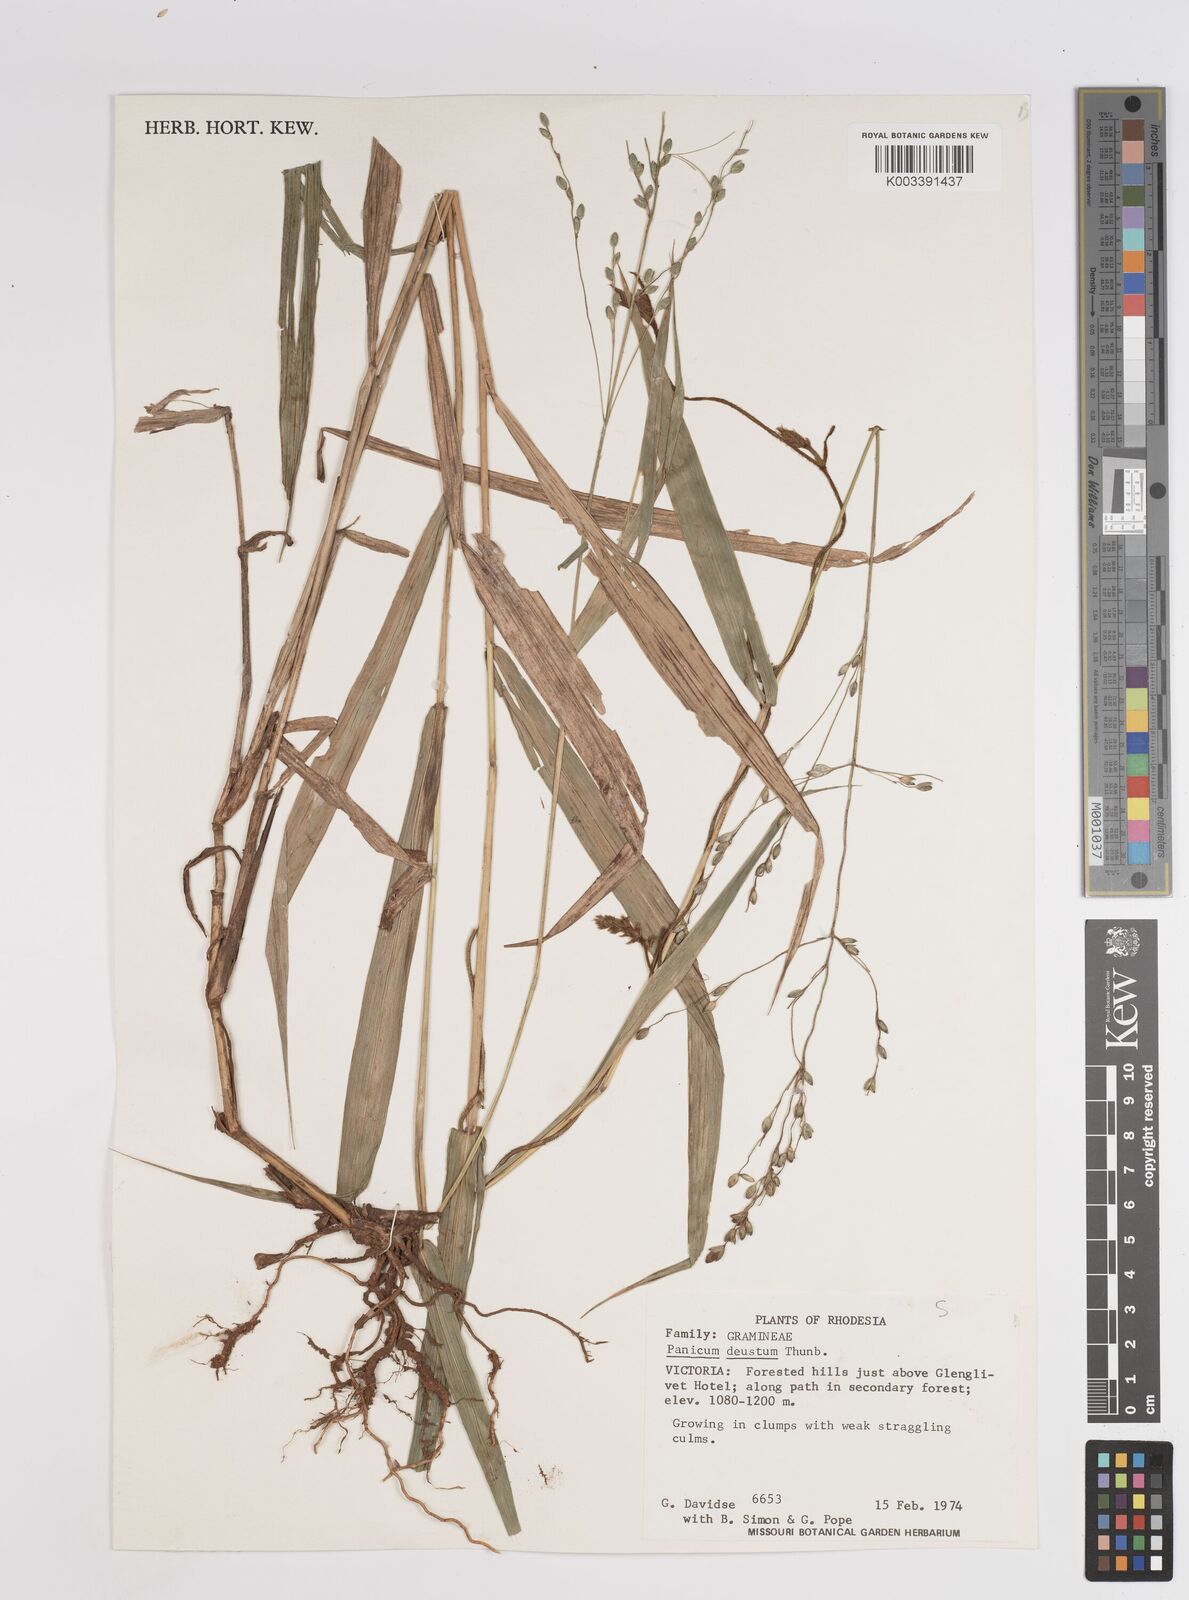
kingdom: Plantae
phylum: Tracheophyta
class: Liliopsida
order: Poales
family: Poaceae
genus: Panicum
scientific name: Panicum deustum
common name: Reed panicum
